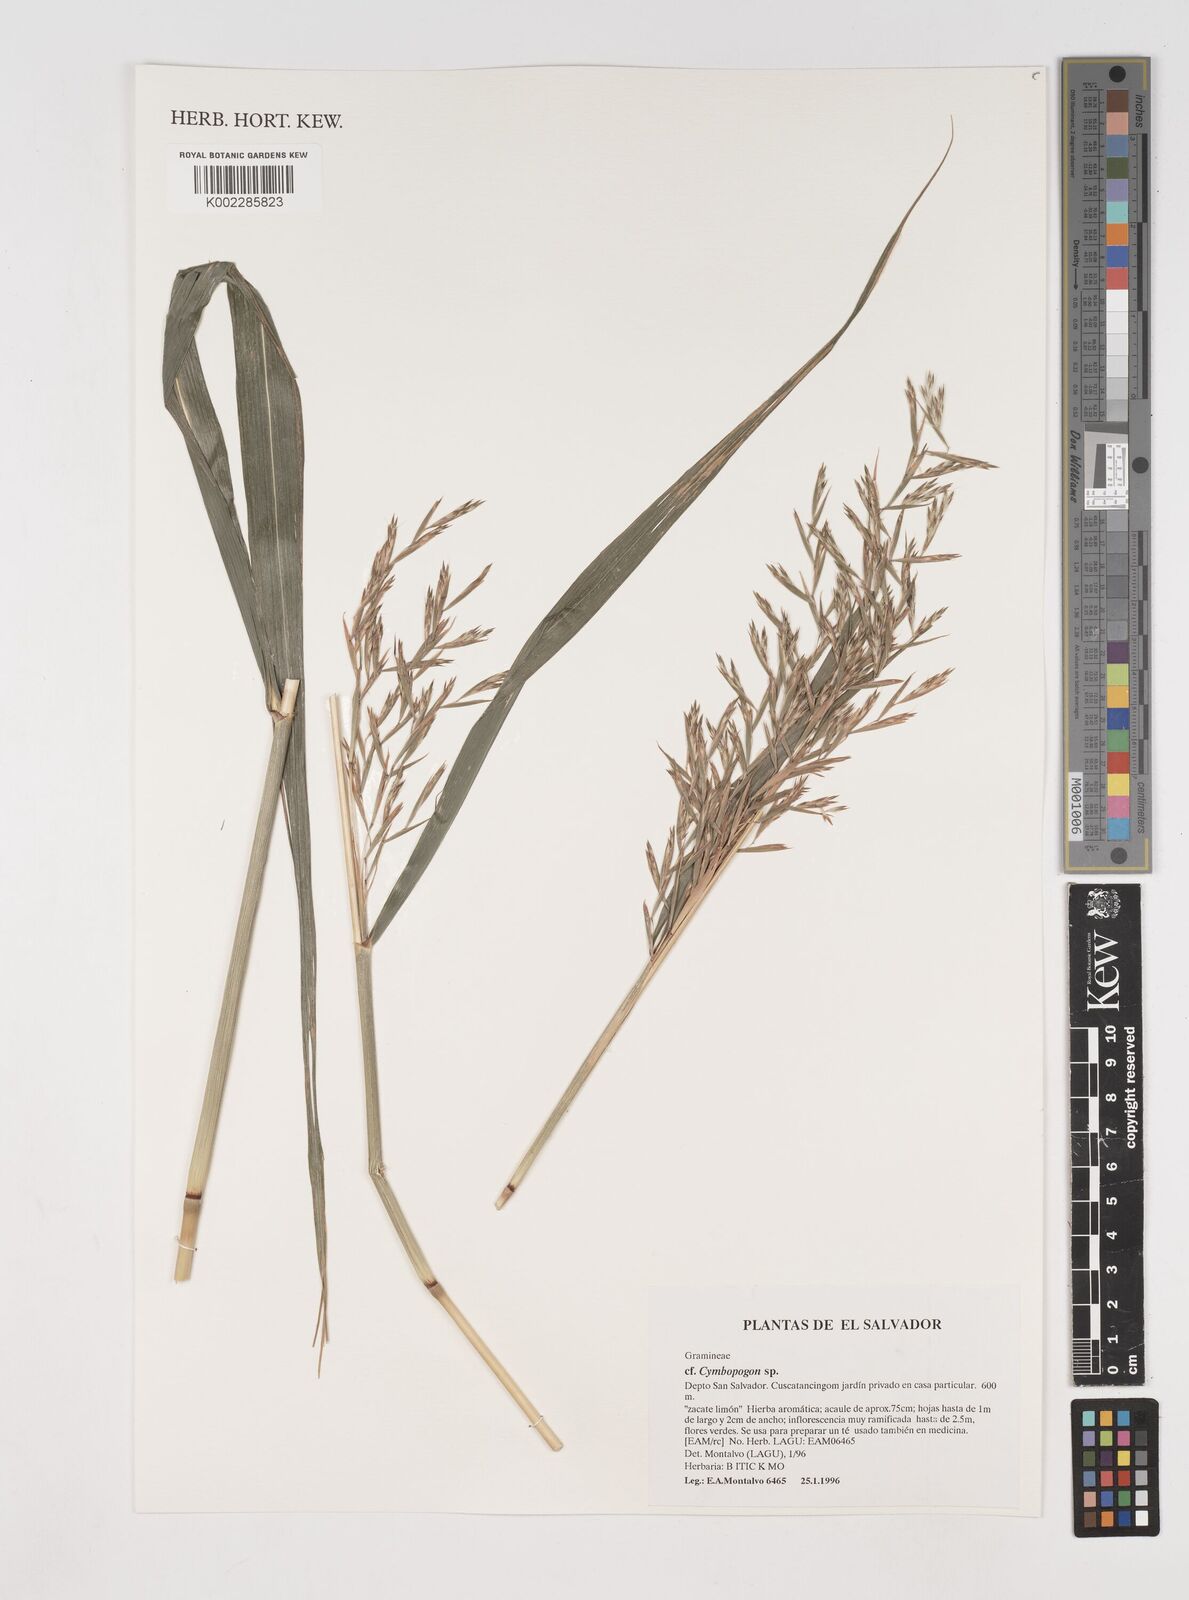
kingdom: Plantae
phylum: Tracheophyta
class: Liliopsida
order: Poales
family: Poaceae
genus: Cymbopogon
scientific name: Cymbopogon nardus
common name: Giant turpentine grass
